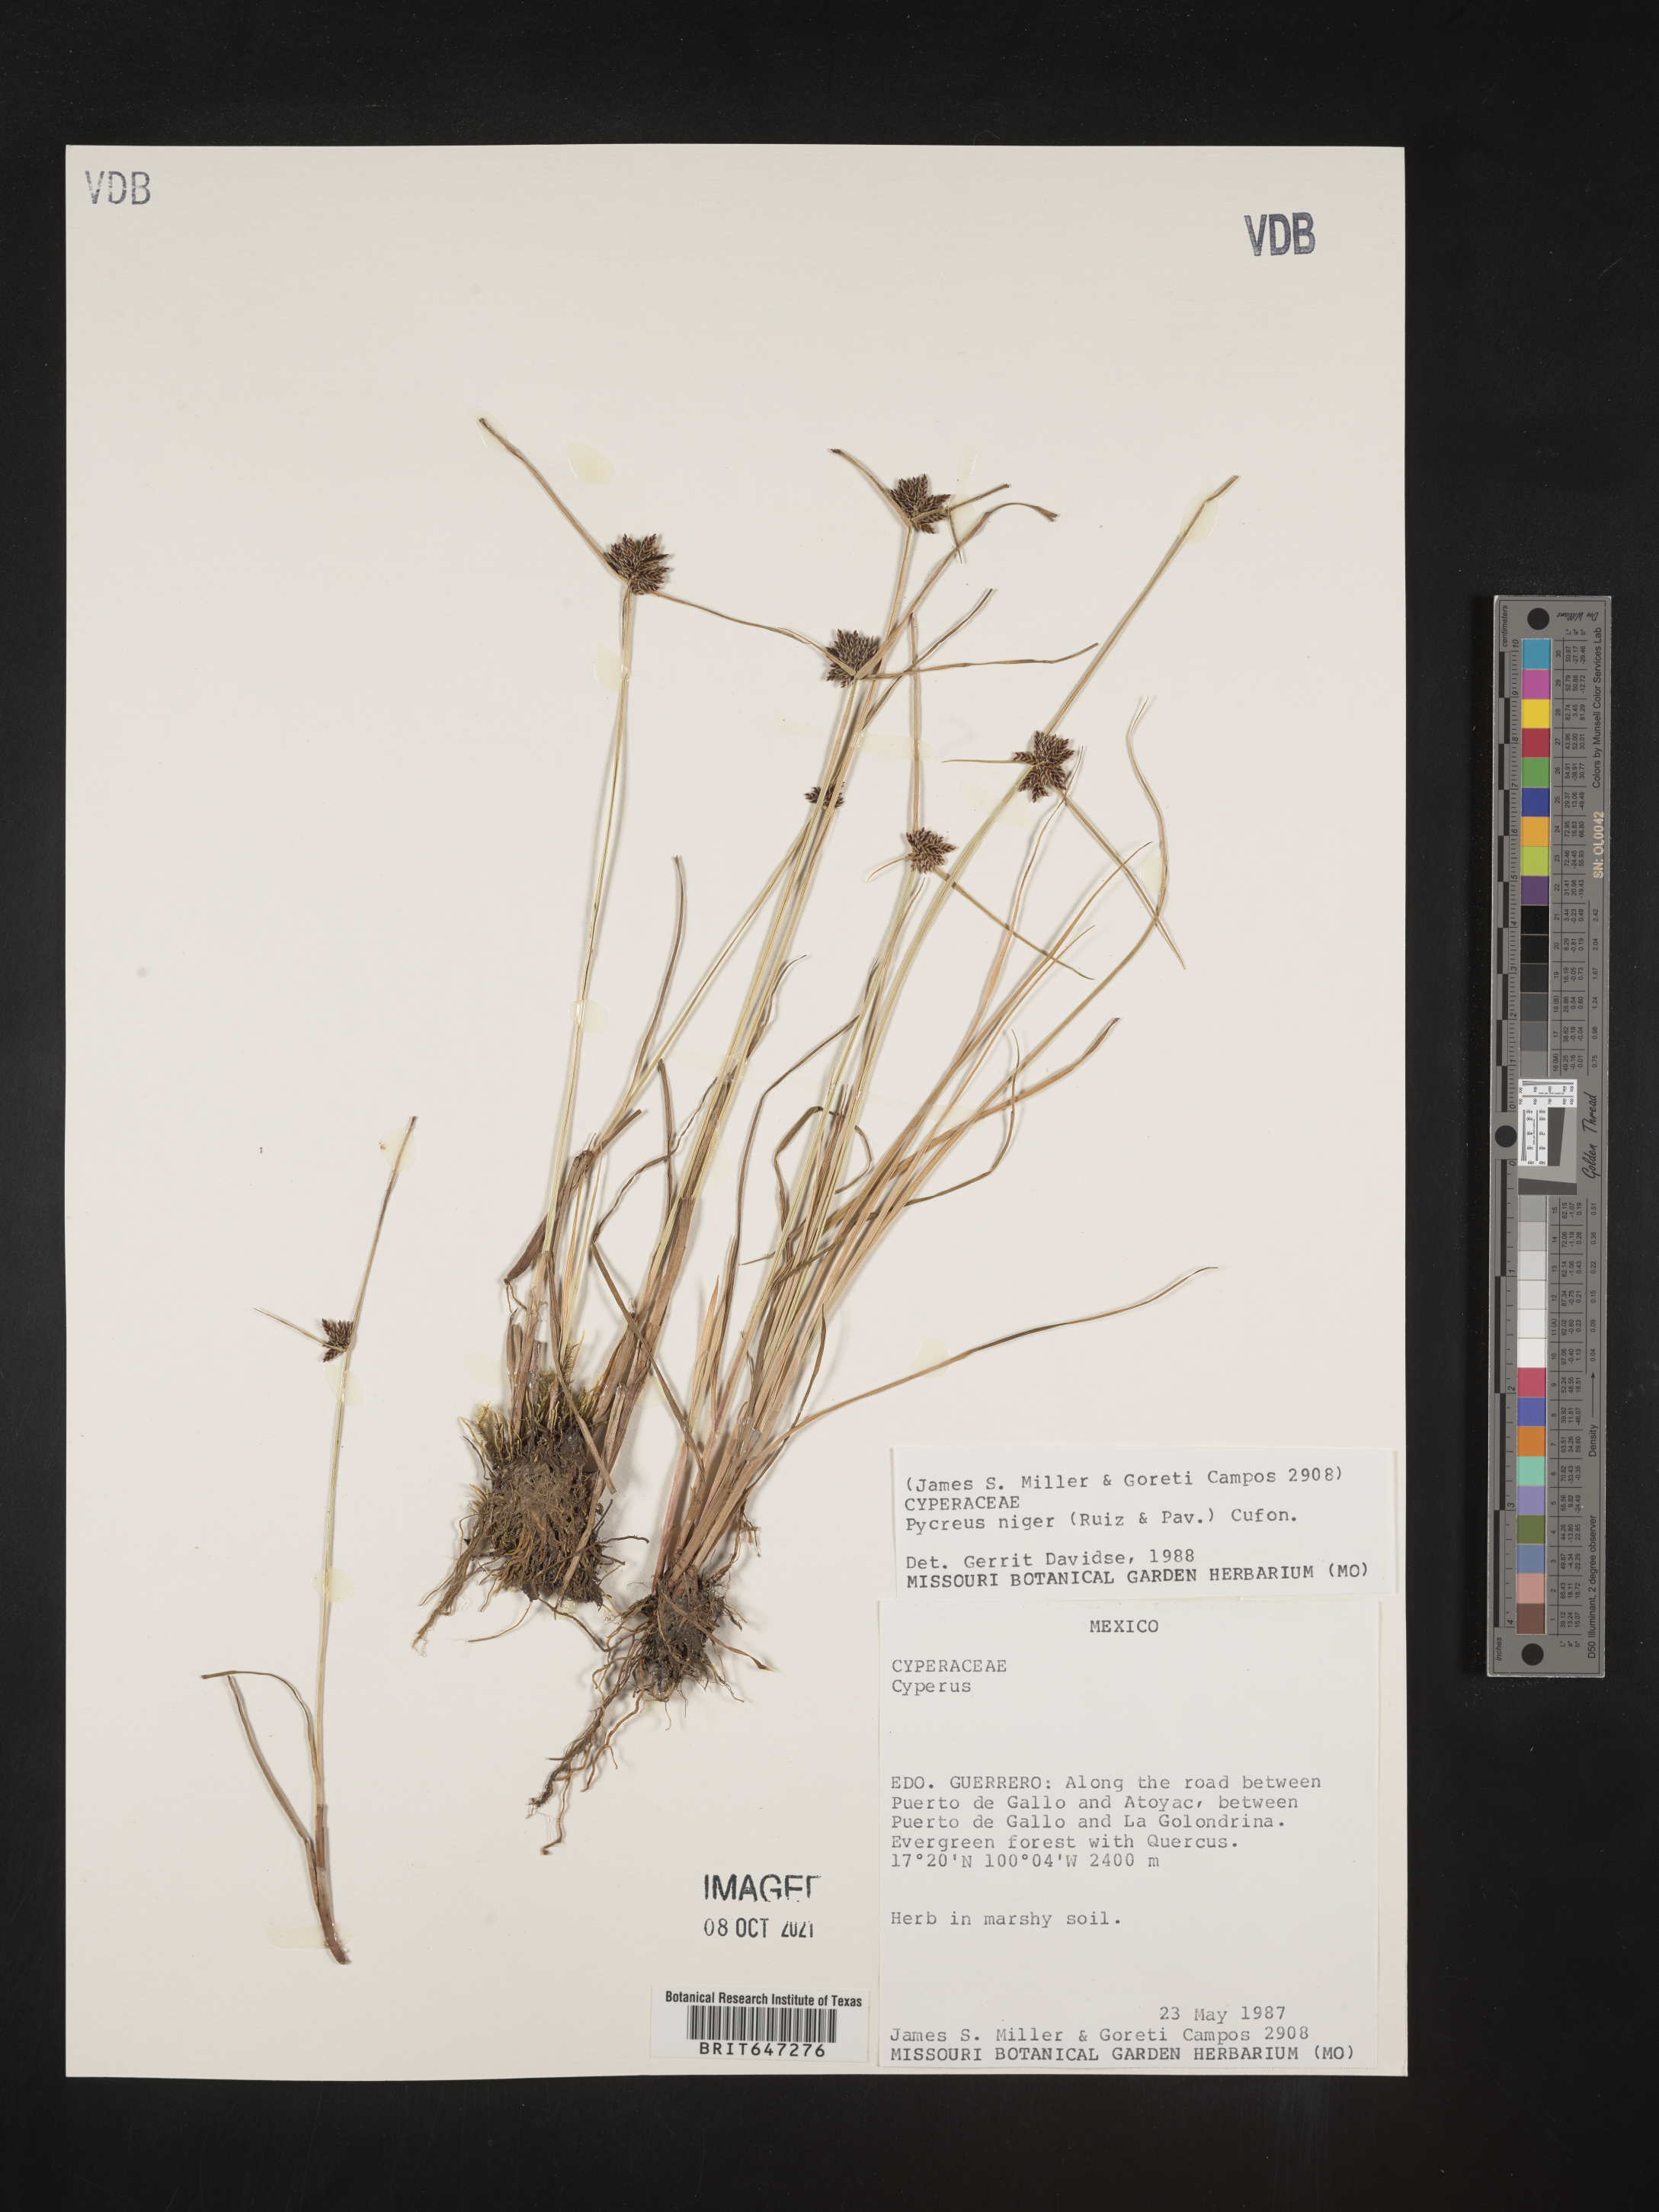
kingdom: Plantae
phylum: Tracheophyta
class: Liliopsida
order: Poales
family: Cyperaceae
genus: Cyperus
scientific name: Cyperus melanostachyus
